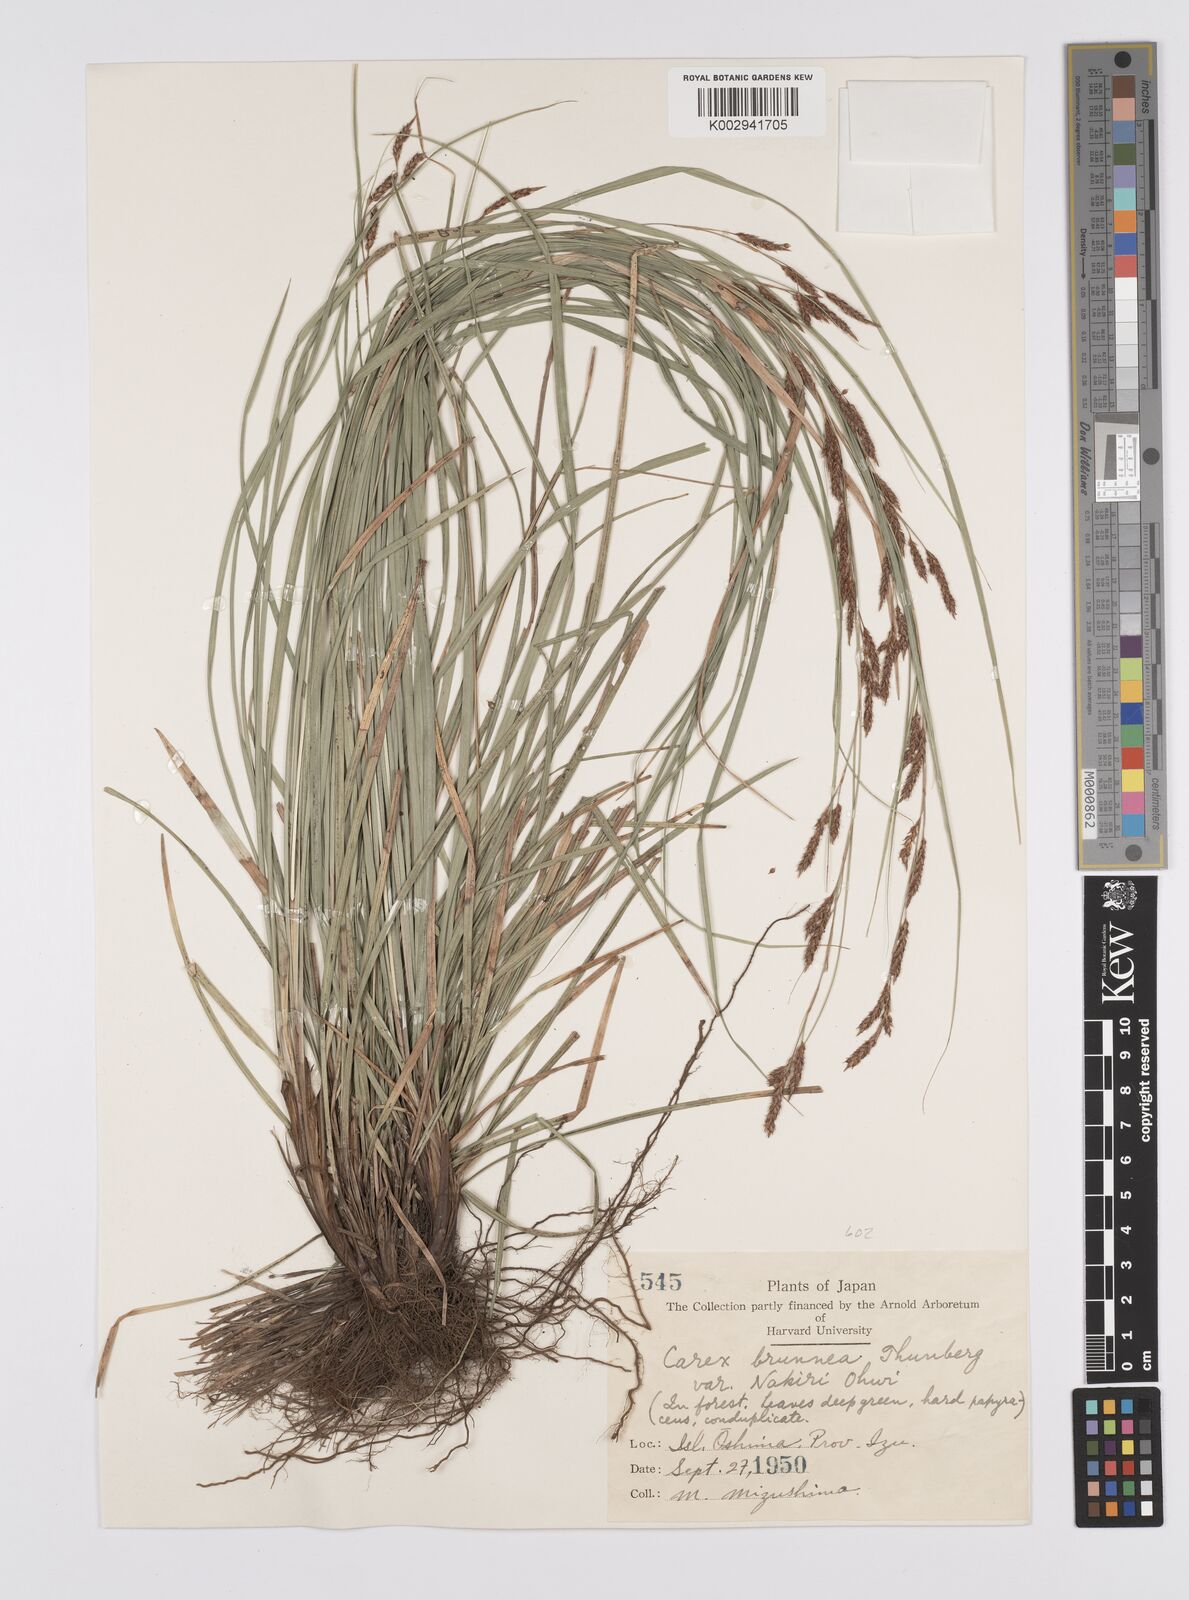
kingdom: Plantae
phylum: Tracheophyta
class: Liliopsida
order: Poales
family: Cyperaceae
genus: Carex
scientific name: Carex brunnea
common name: Greater brown sedge
